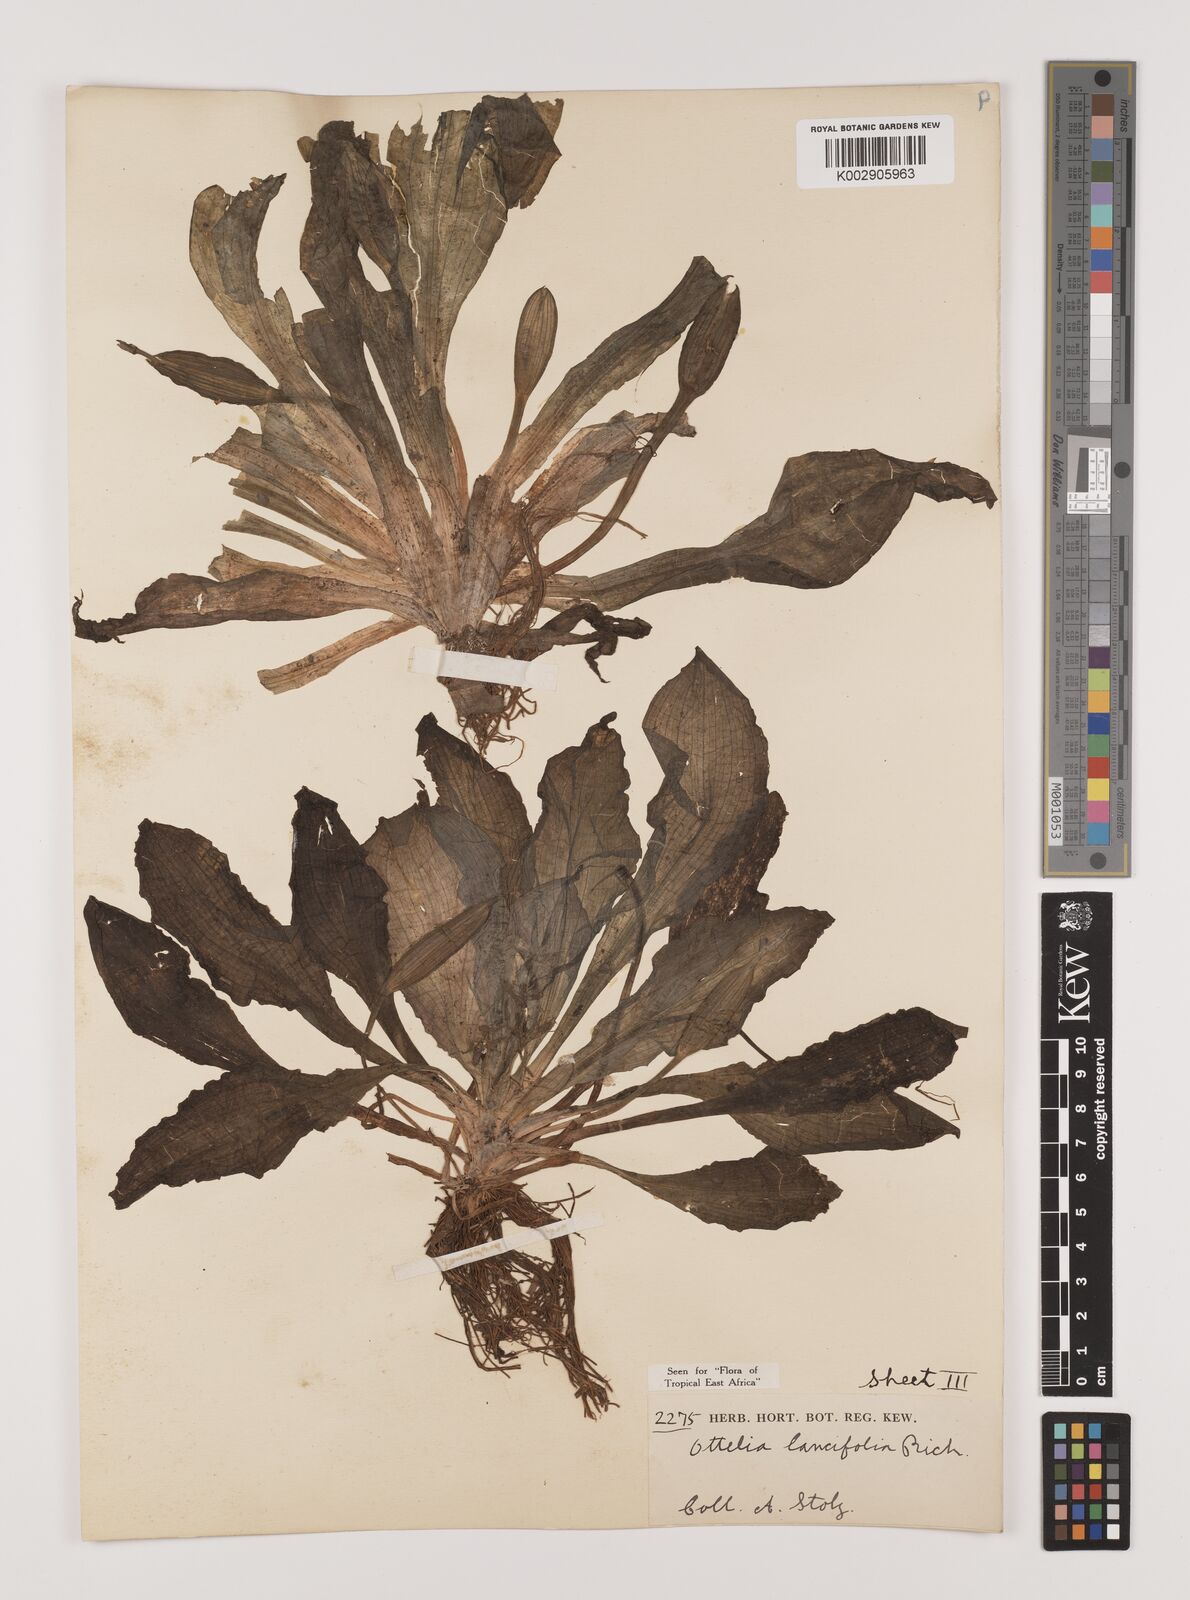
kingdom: Plantae
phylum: Tracheophyta
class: Liliopsida
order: Alismatales
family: Hydrocharitaceae
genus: Ottelia
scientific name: Ottelia ulvifolia
